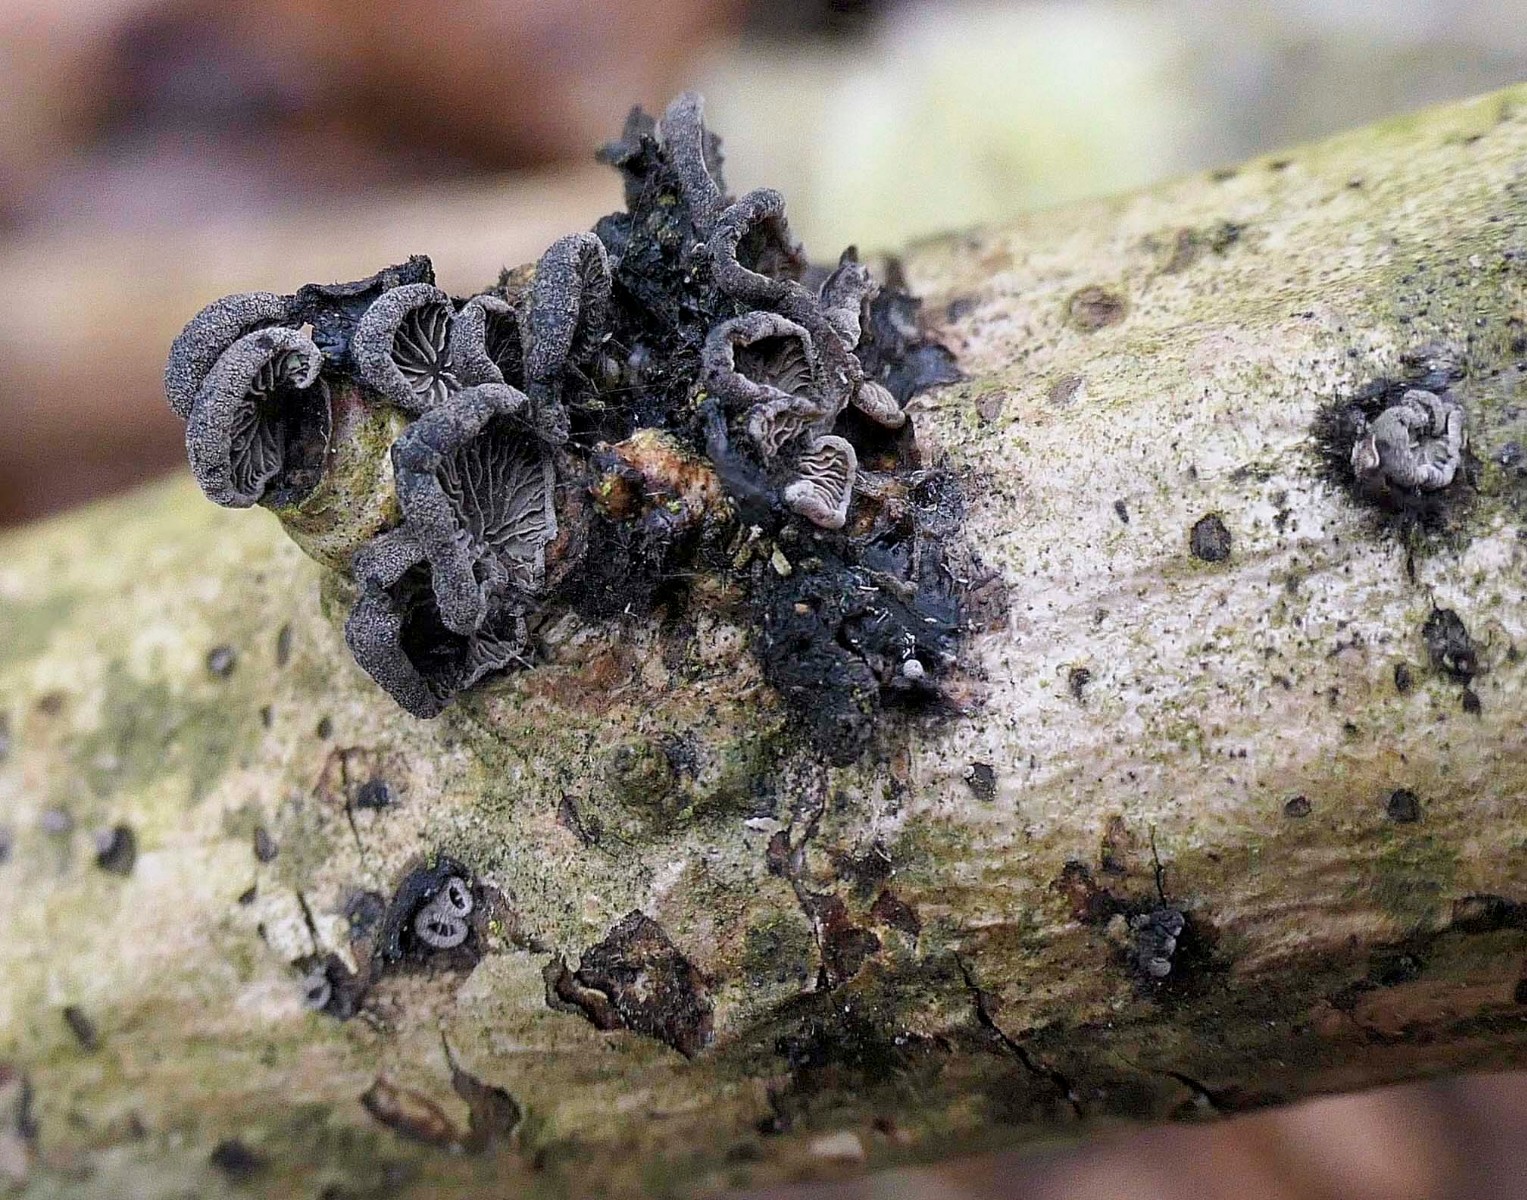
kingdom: Fungi
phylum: Basidiomycota
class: Agaricomycetes
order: Agaricales
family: Pleurotaceae
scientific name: Pleurotaceae
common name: østershatfamilien
